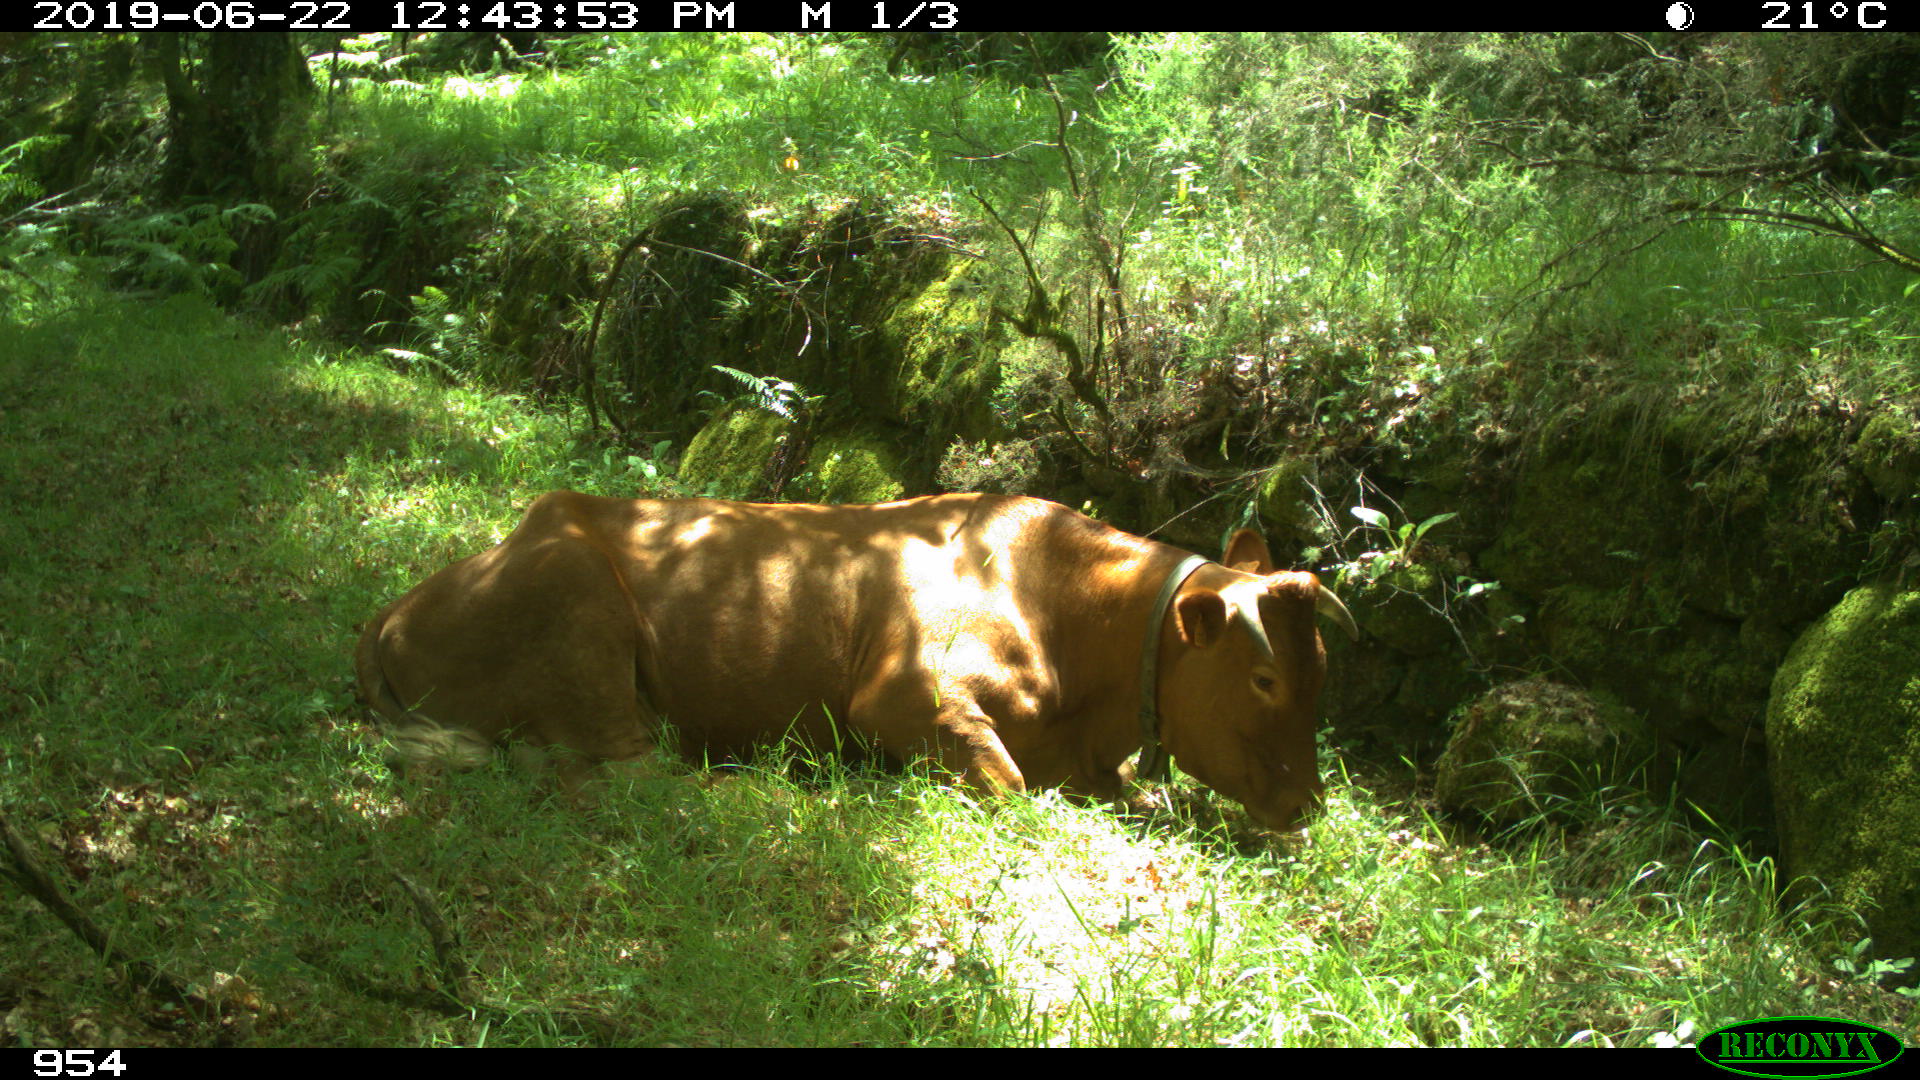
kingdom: Animalia
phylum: Chordata
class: Mammalia
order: Artiodactyla
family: Bovidae
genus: Bos
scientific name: Bos taurus
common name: Domesticated cattle
